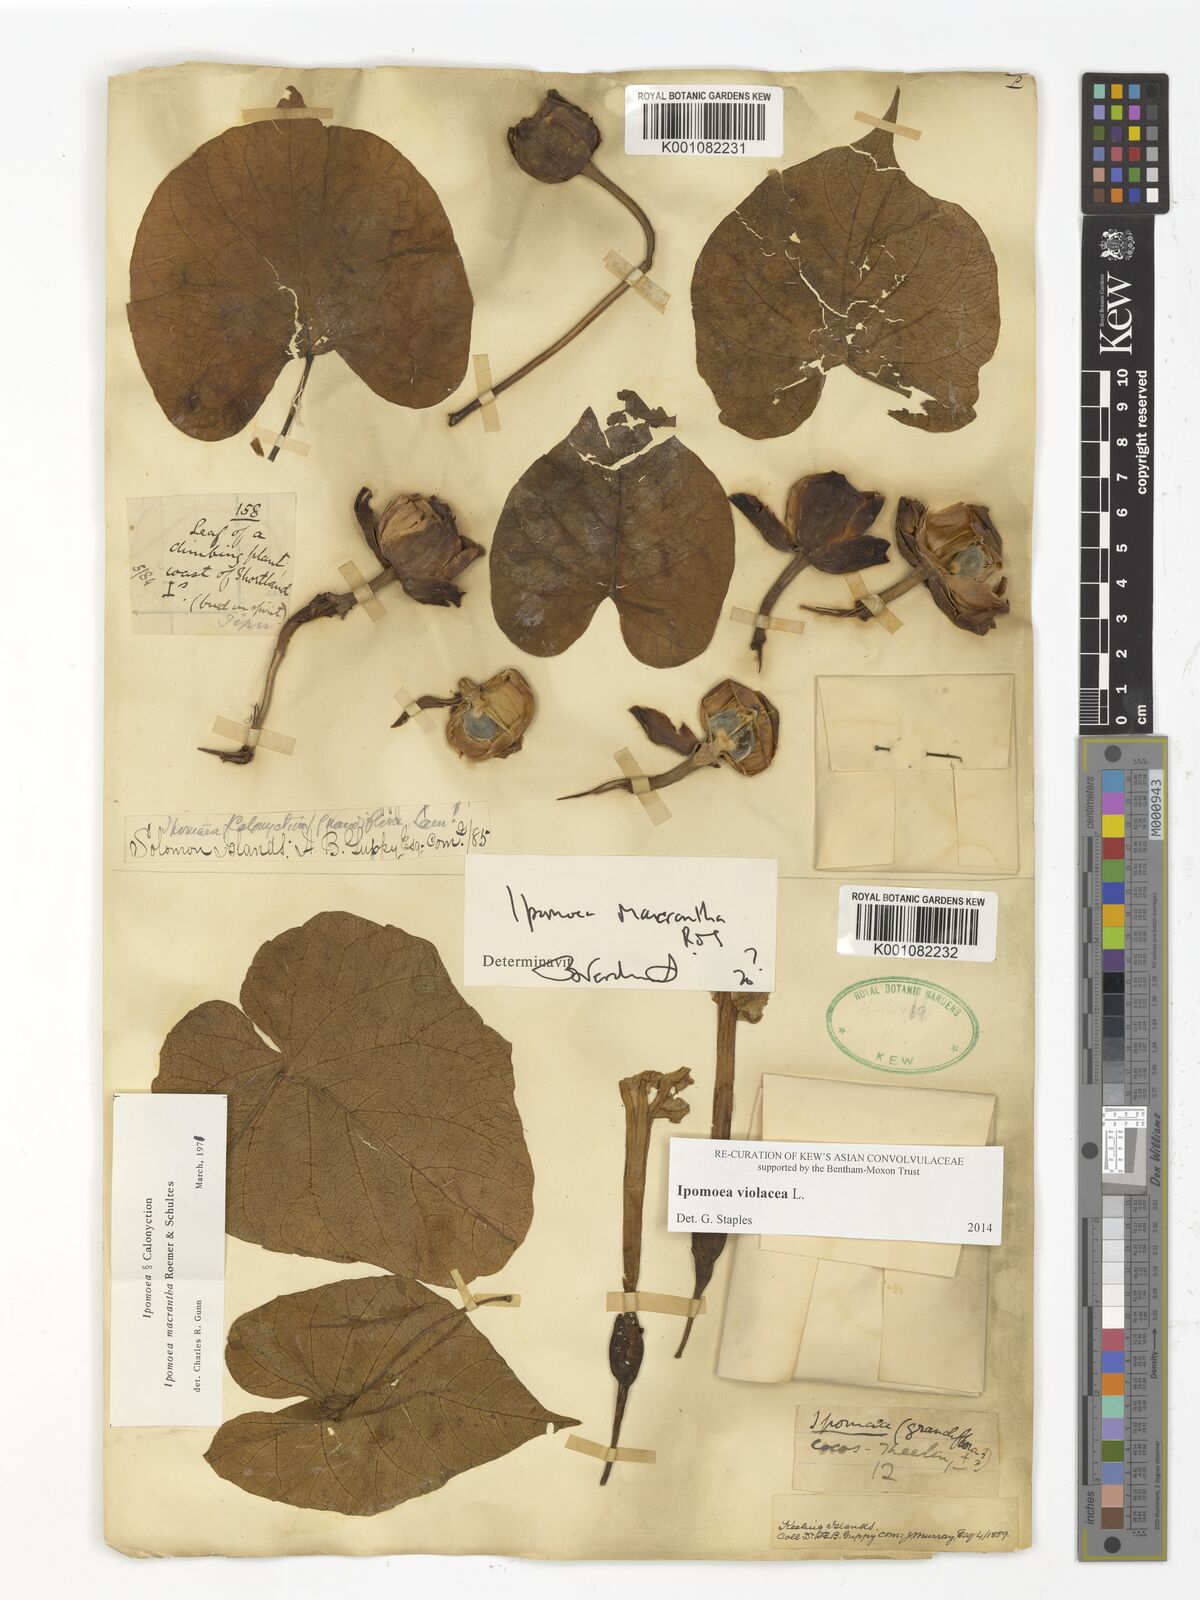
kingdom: Plantae
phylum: Tracheophyta
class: Magnoliopsida
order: Solanales
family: Convolvulaceae
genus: Ipomoea
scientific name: Ipomoea violacea
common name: Beach moonflower
